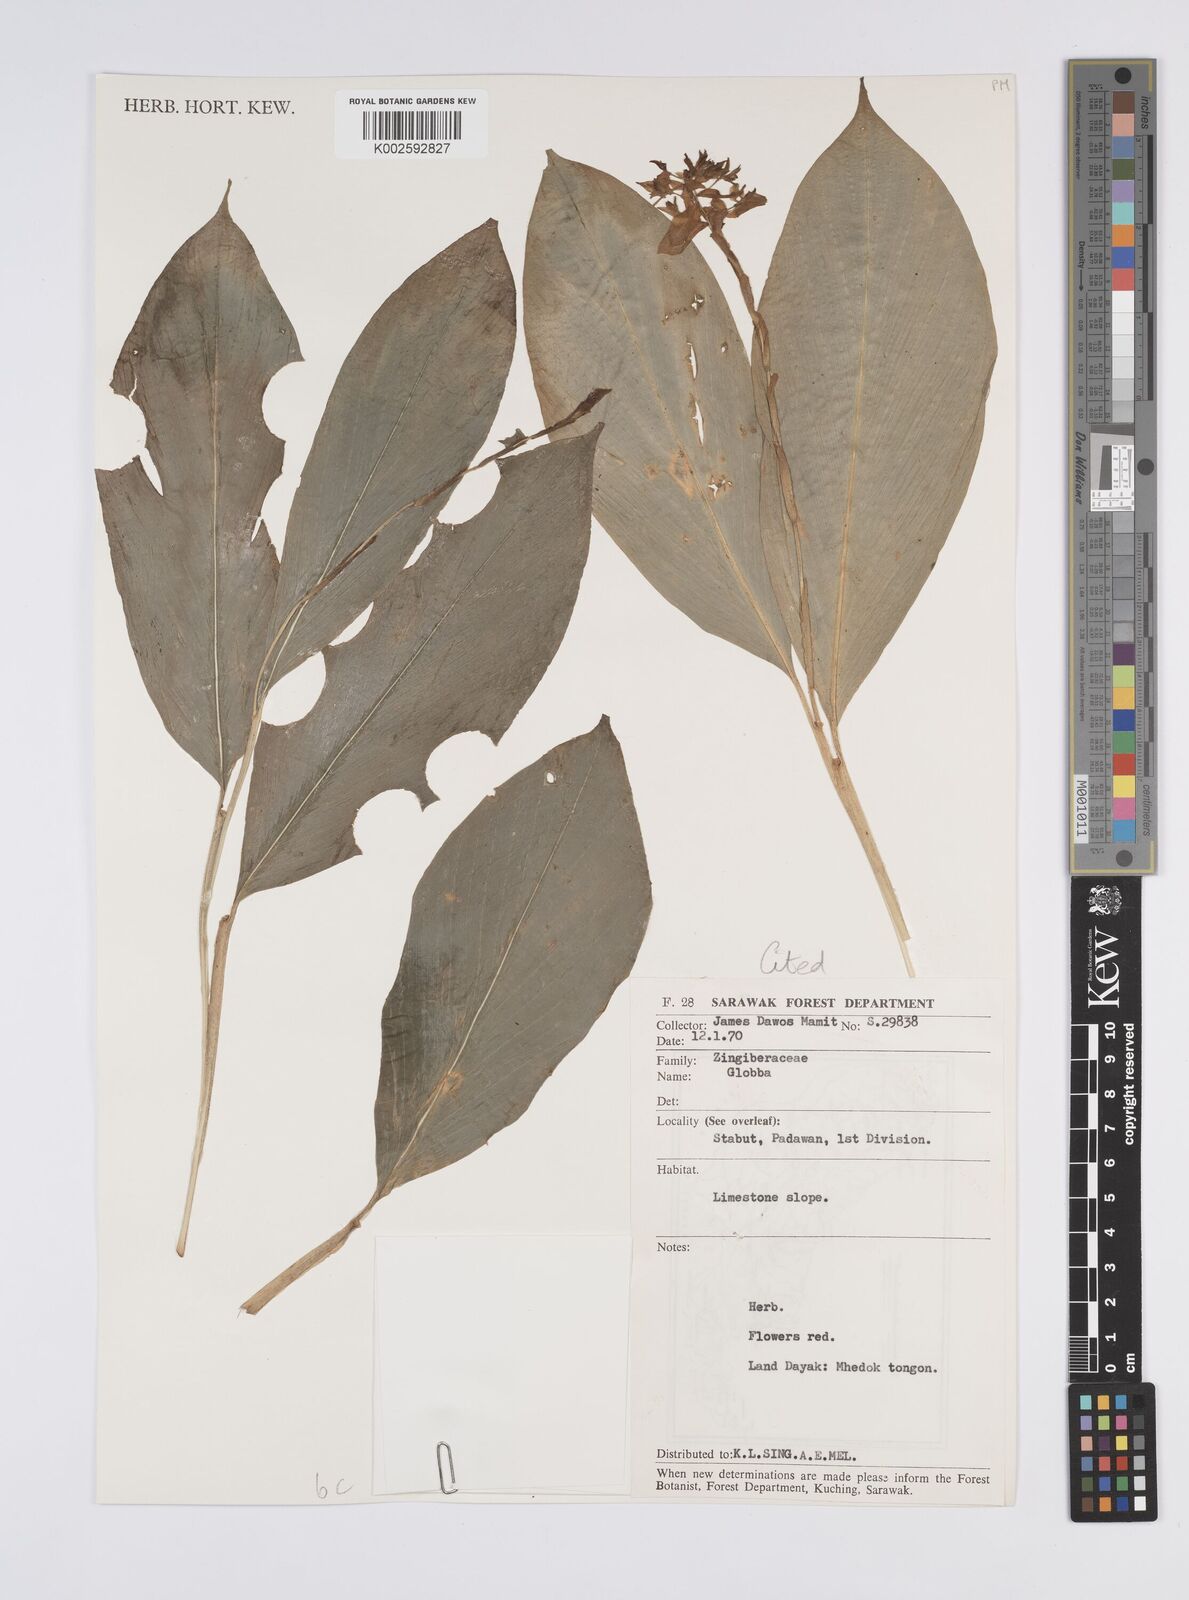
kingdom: Plantae
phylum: Tracheophyta
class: Liliopsida
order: Zingiberales
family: Zingiberaceae
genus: Globba
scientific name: Globba atrosanguinea
